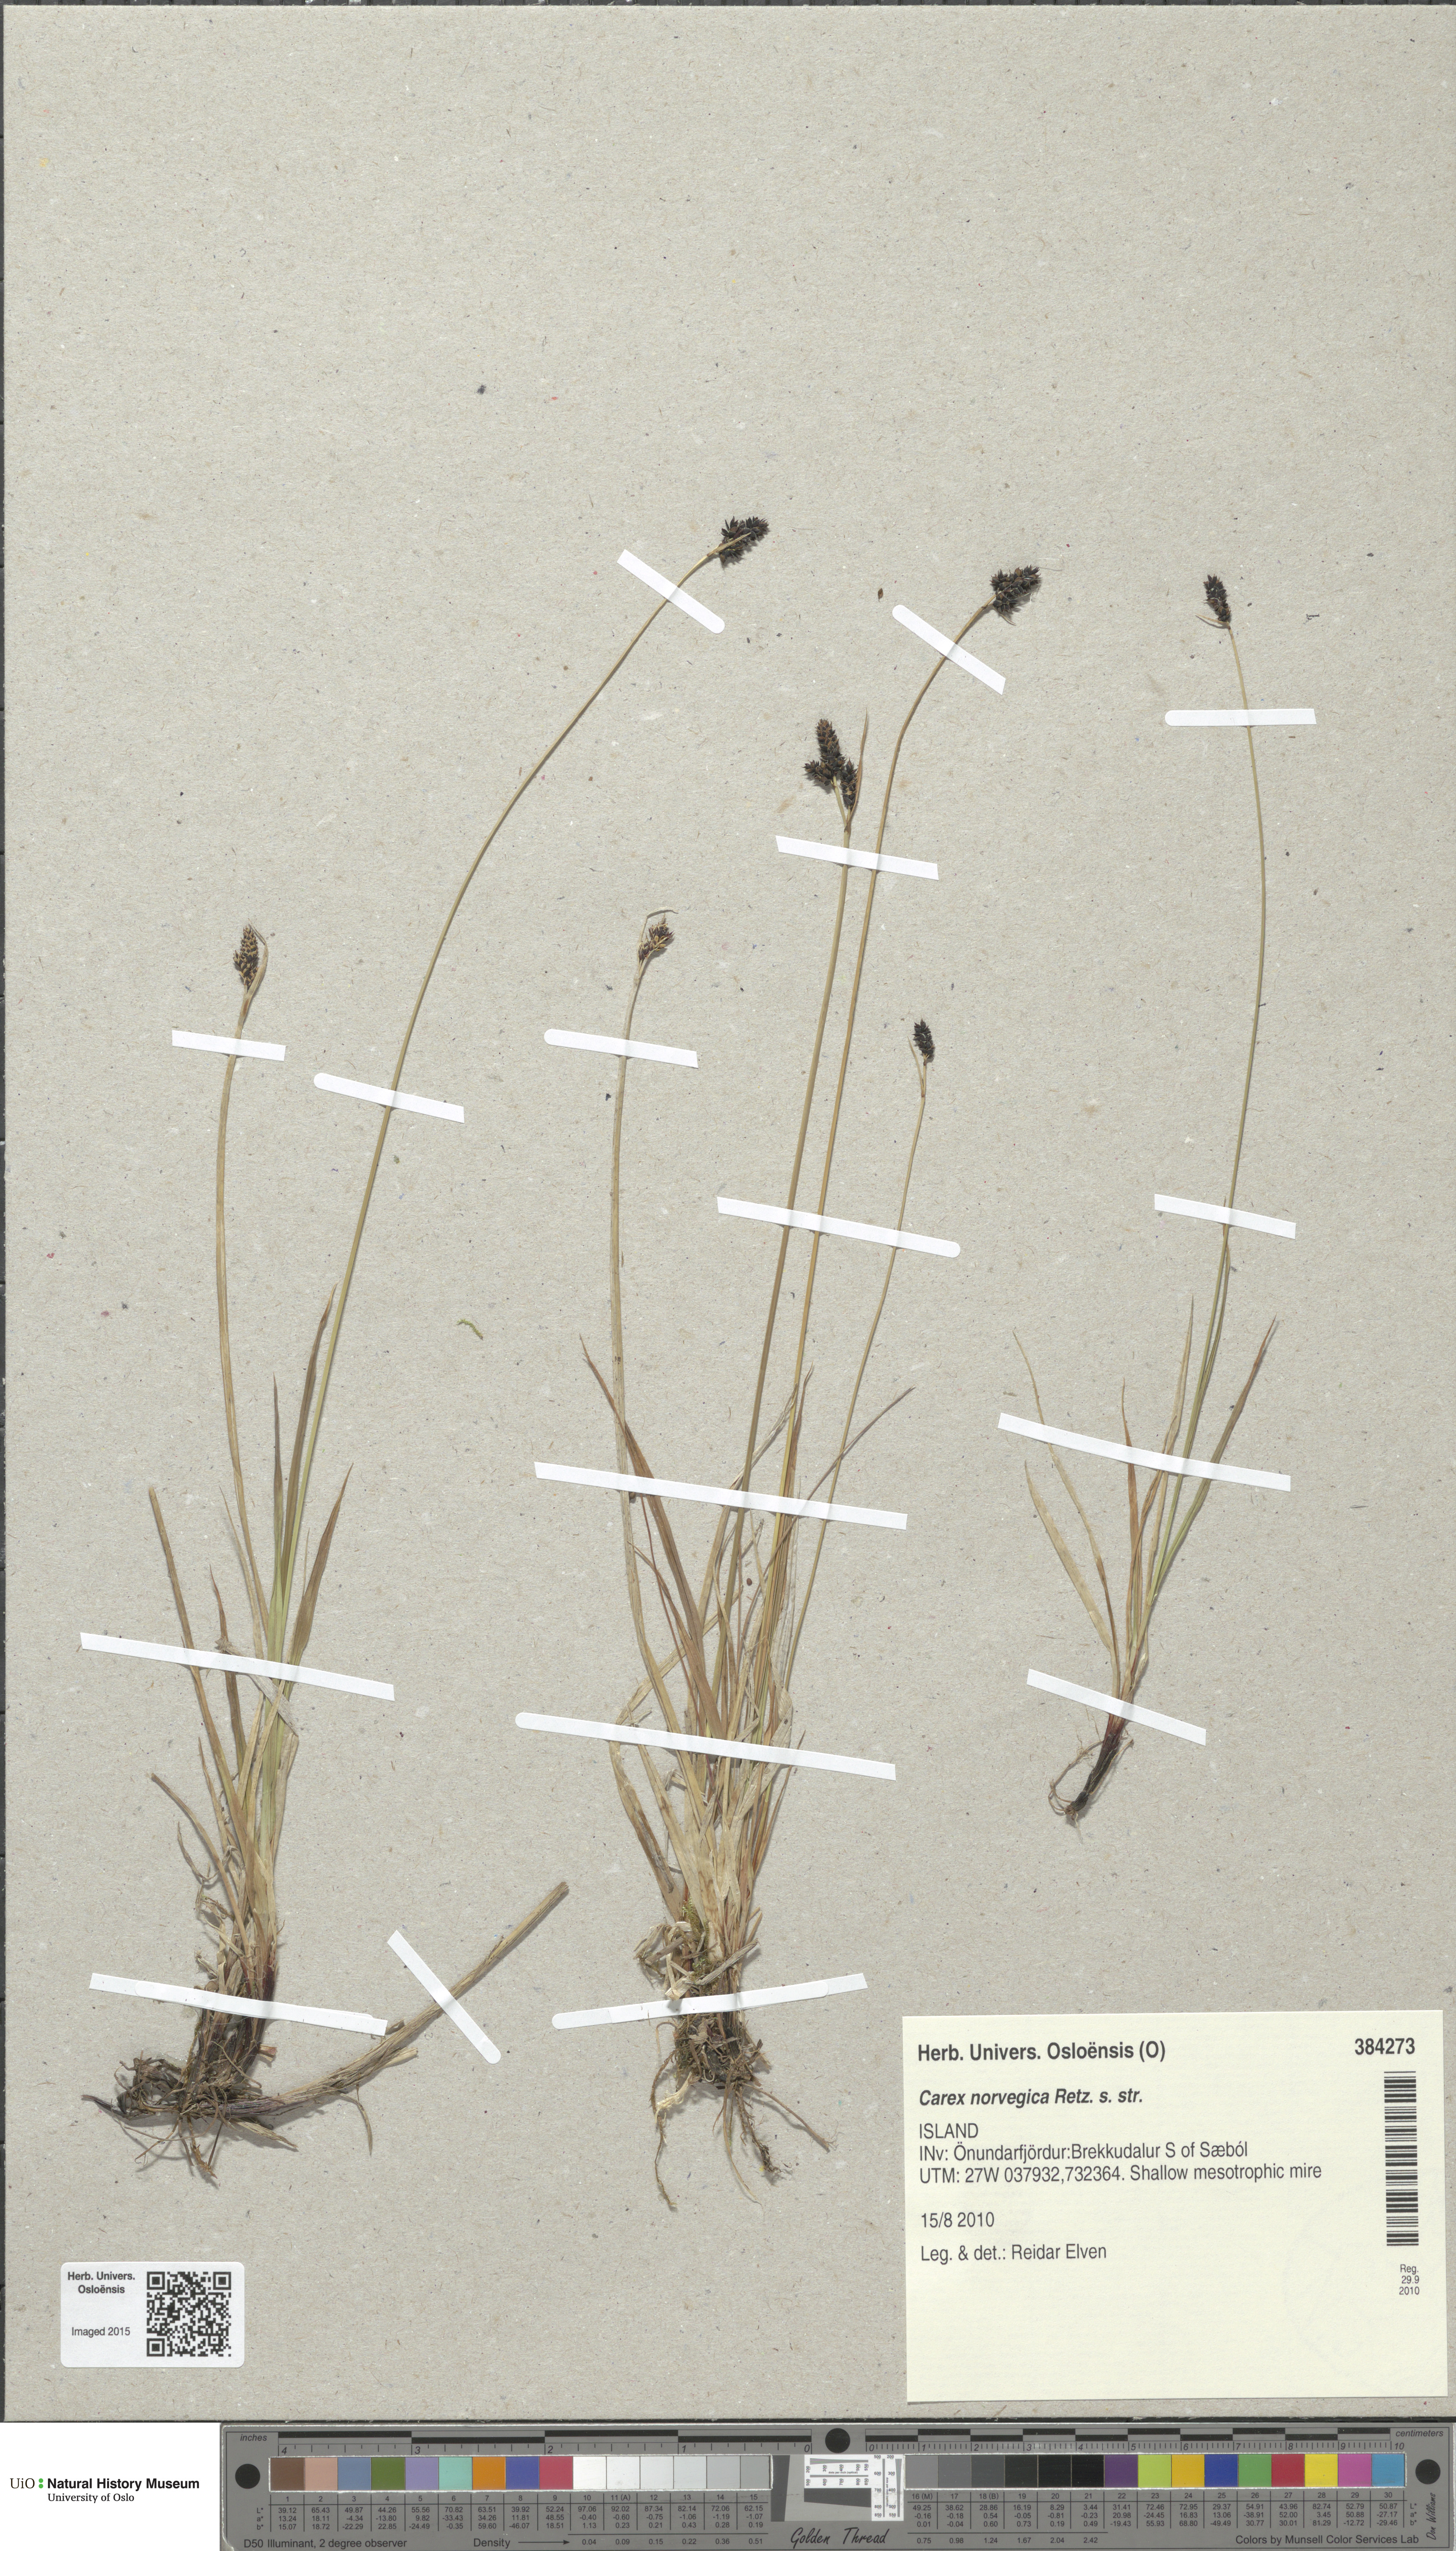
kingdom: Plantae
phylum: Tracheophyta
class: Liliopsida
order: Poales
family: Cyperaceae
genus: Carex
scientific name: Carex norvegica
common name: Close-headed alpine-sedge
